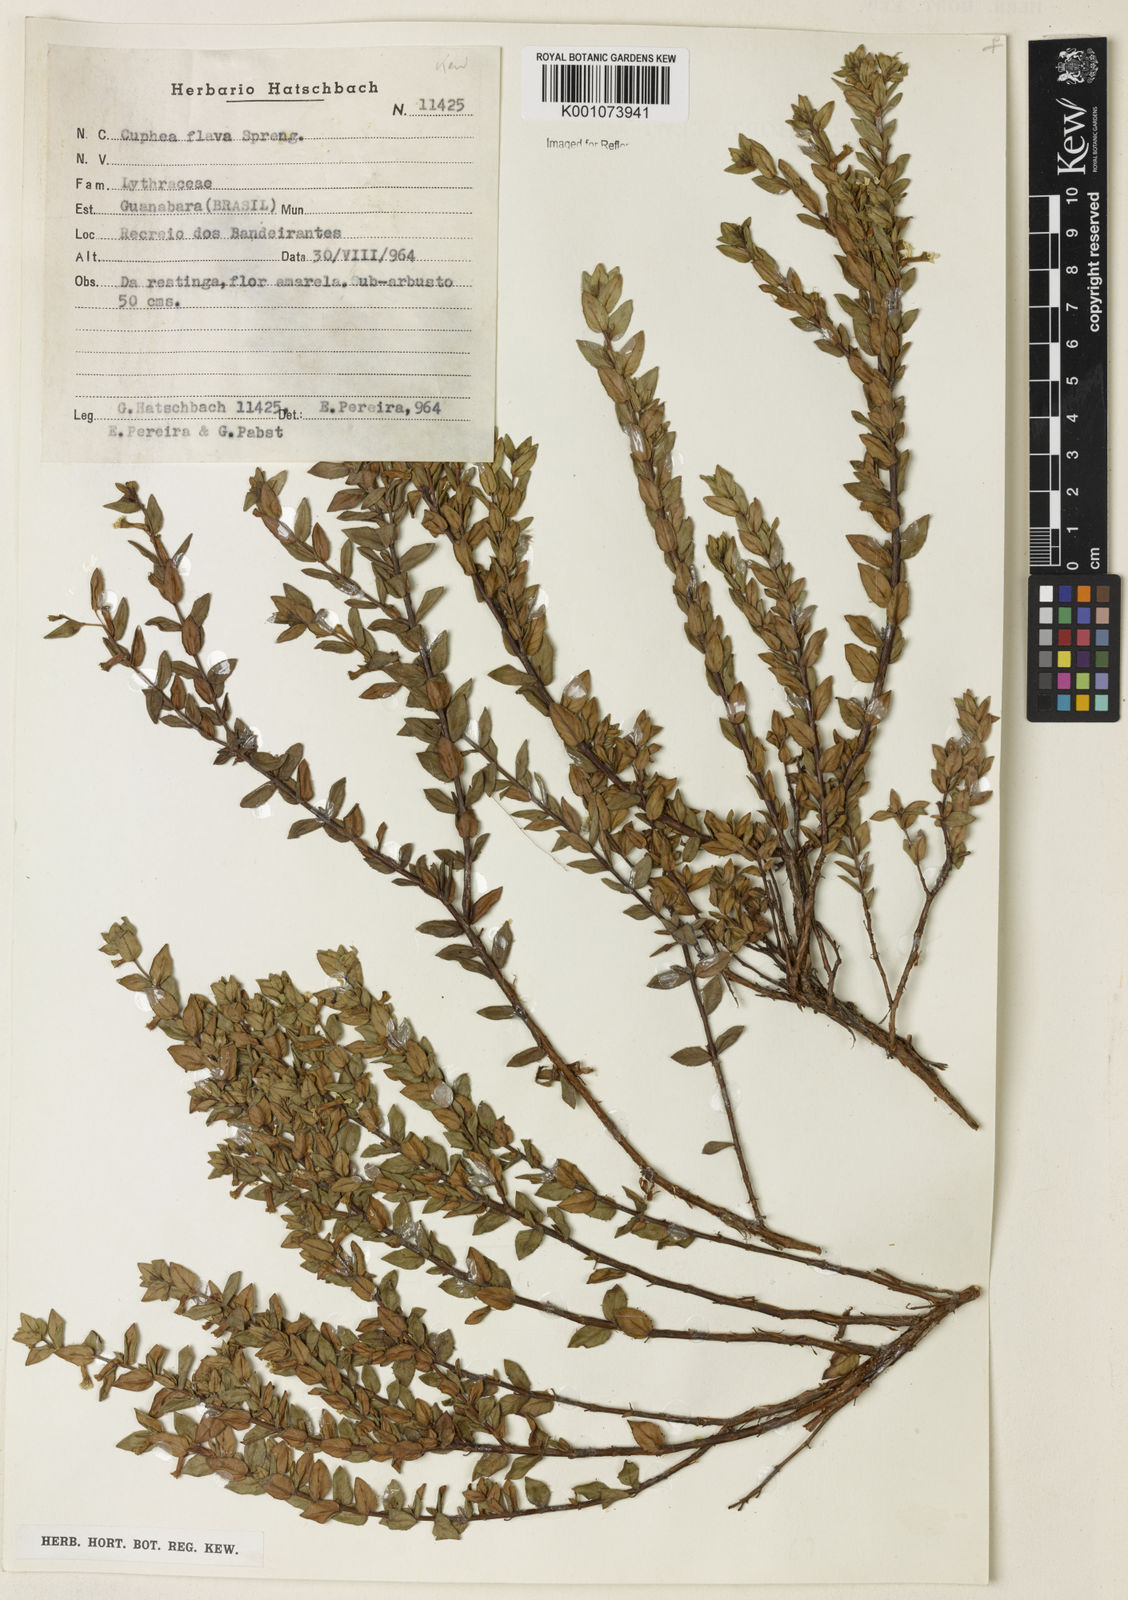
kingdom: Plantae
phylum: Tracheophyta
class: Magnoliopsida
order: Myrtales
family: Lythraceae
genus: Cuphea
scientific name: Cuphea flava
